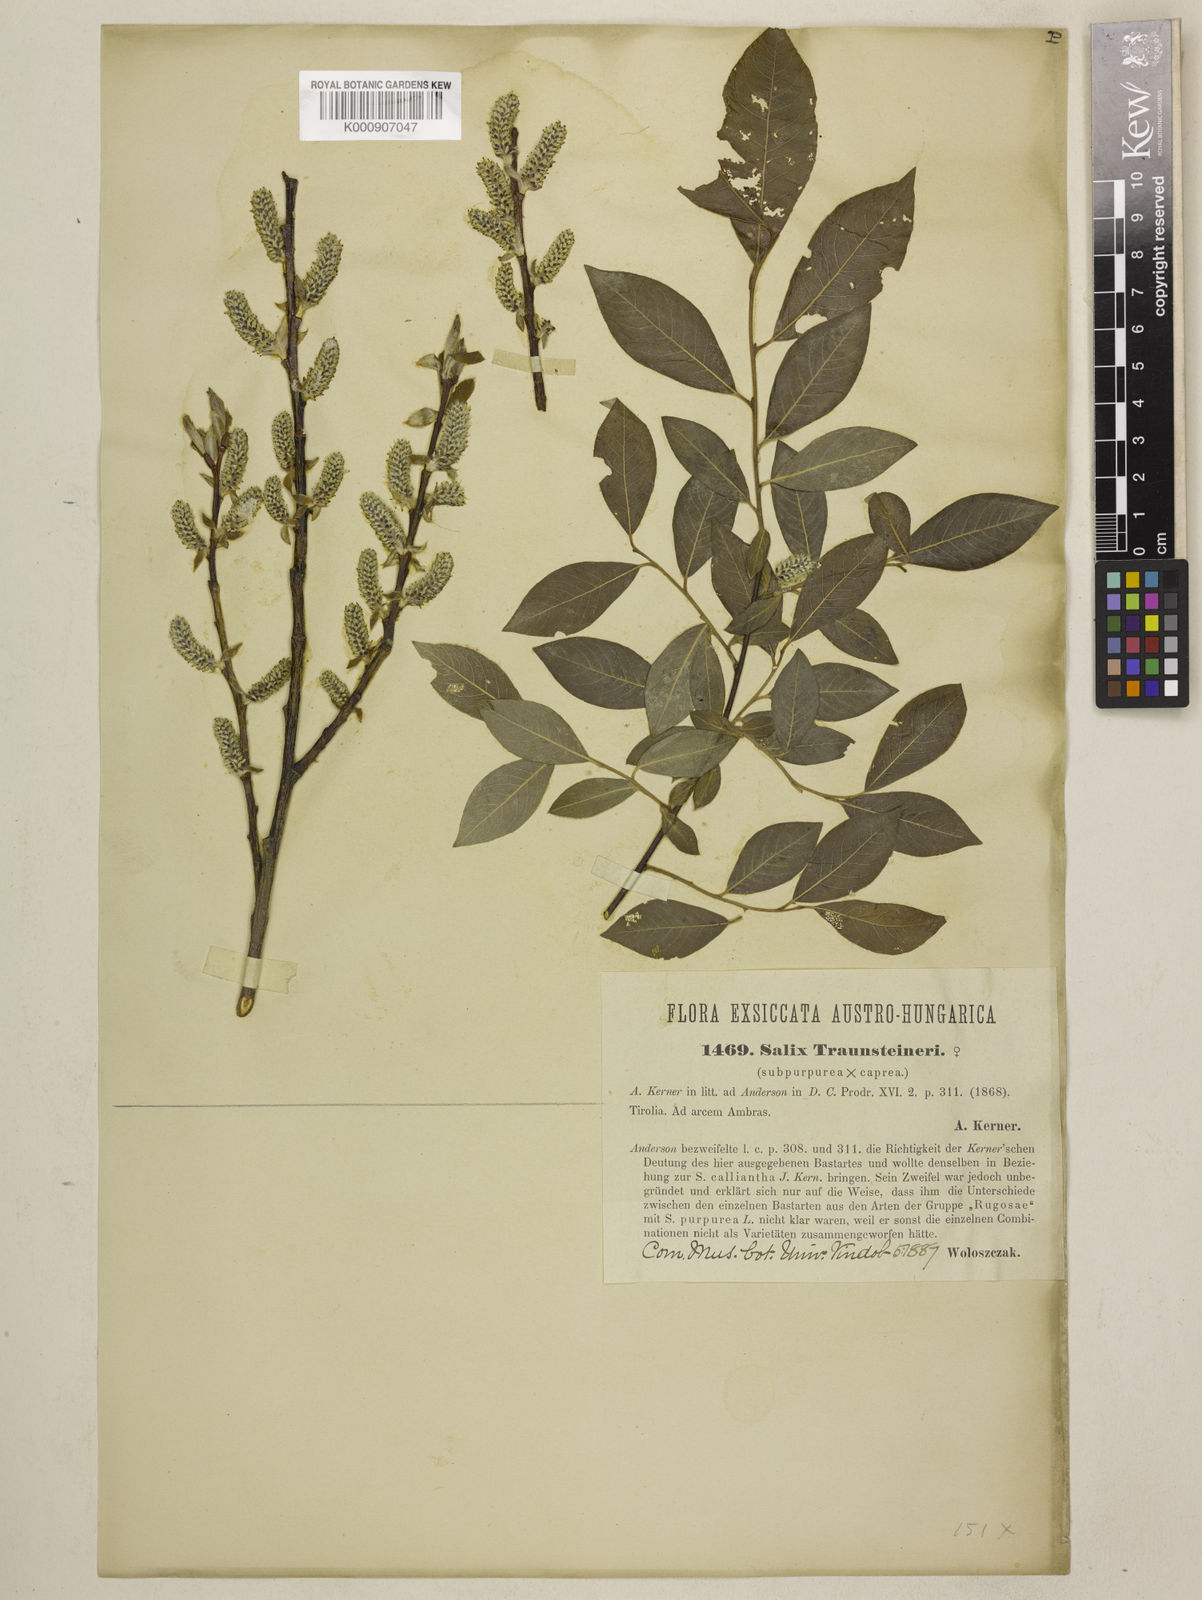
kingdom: Plantae
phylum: Tracheophyta
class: Magnoliopsida
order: Malpighiales
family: Salicaceae
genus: Salix
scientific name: Salix caprea
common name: Goat willow
